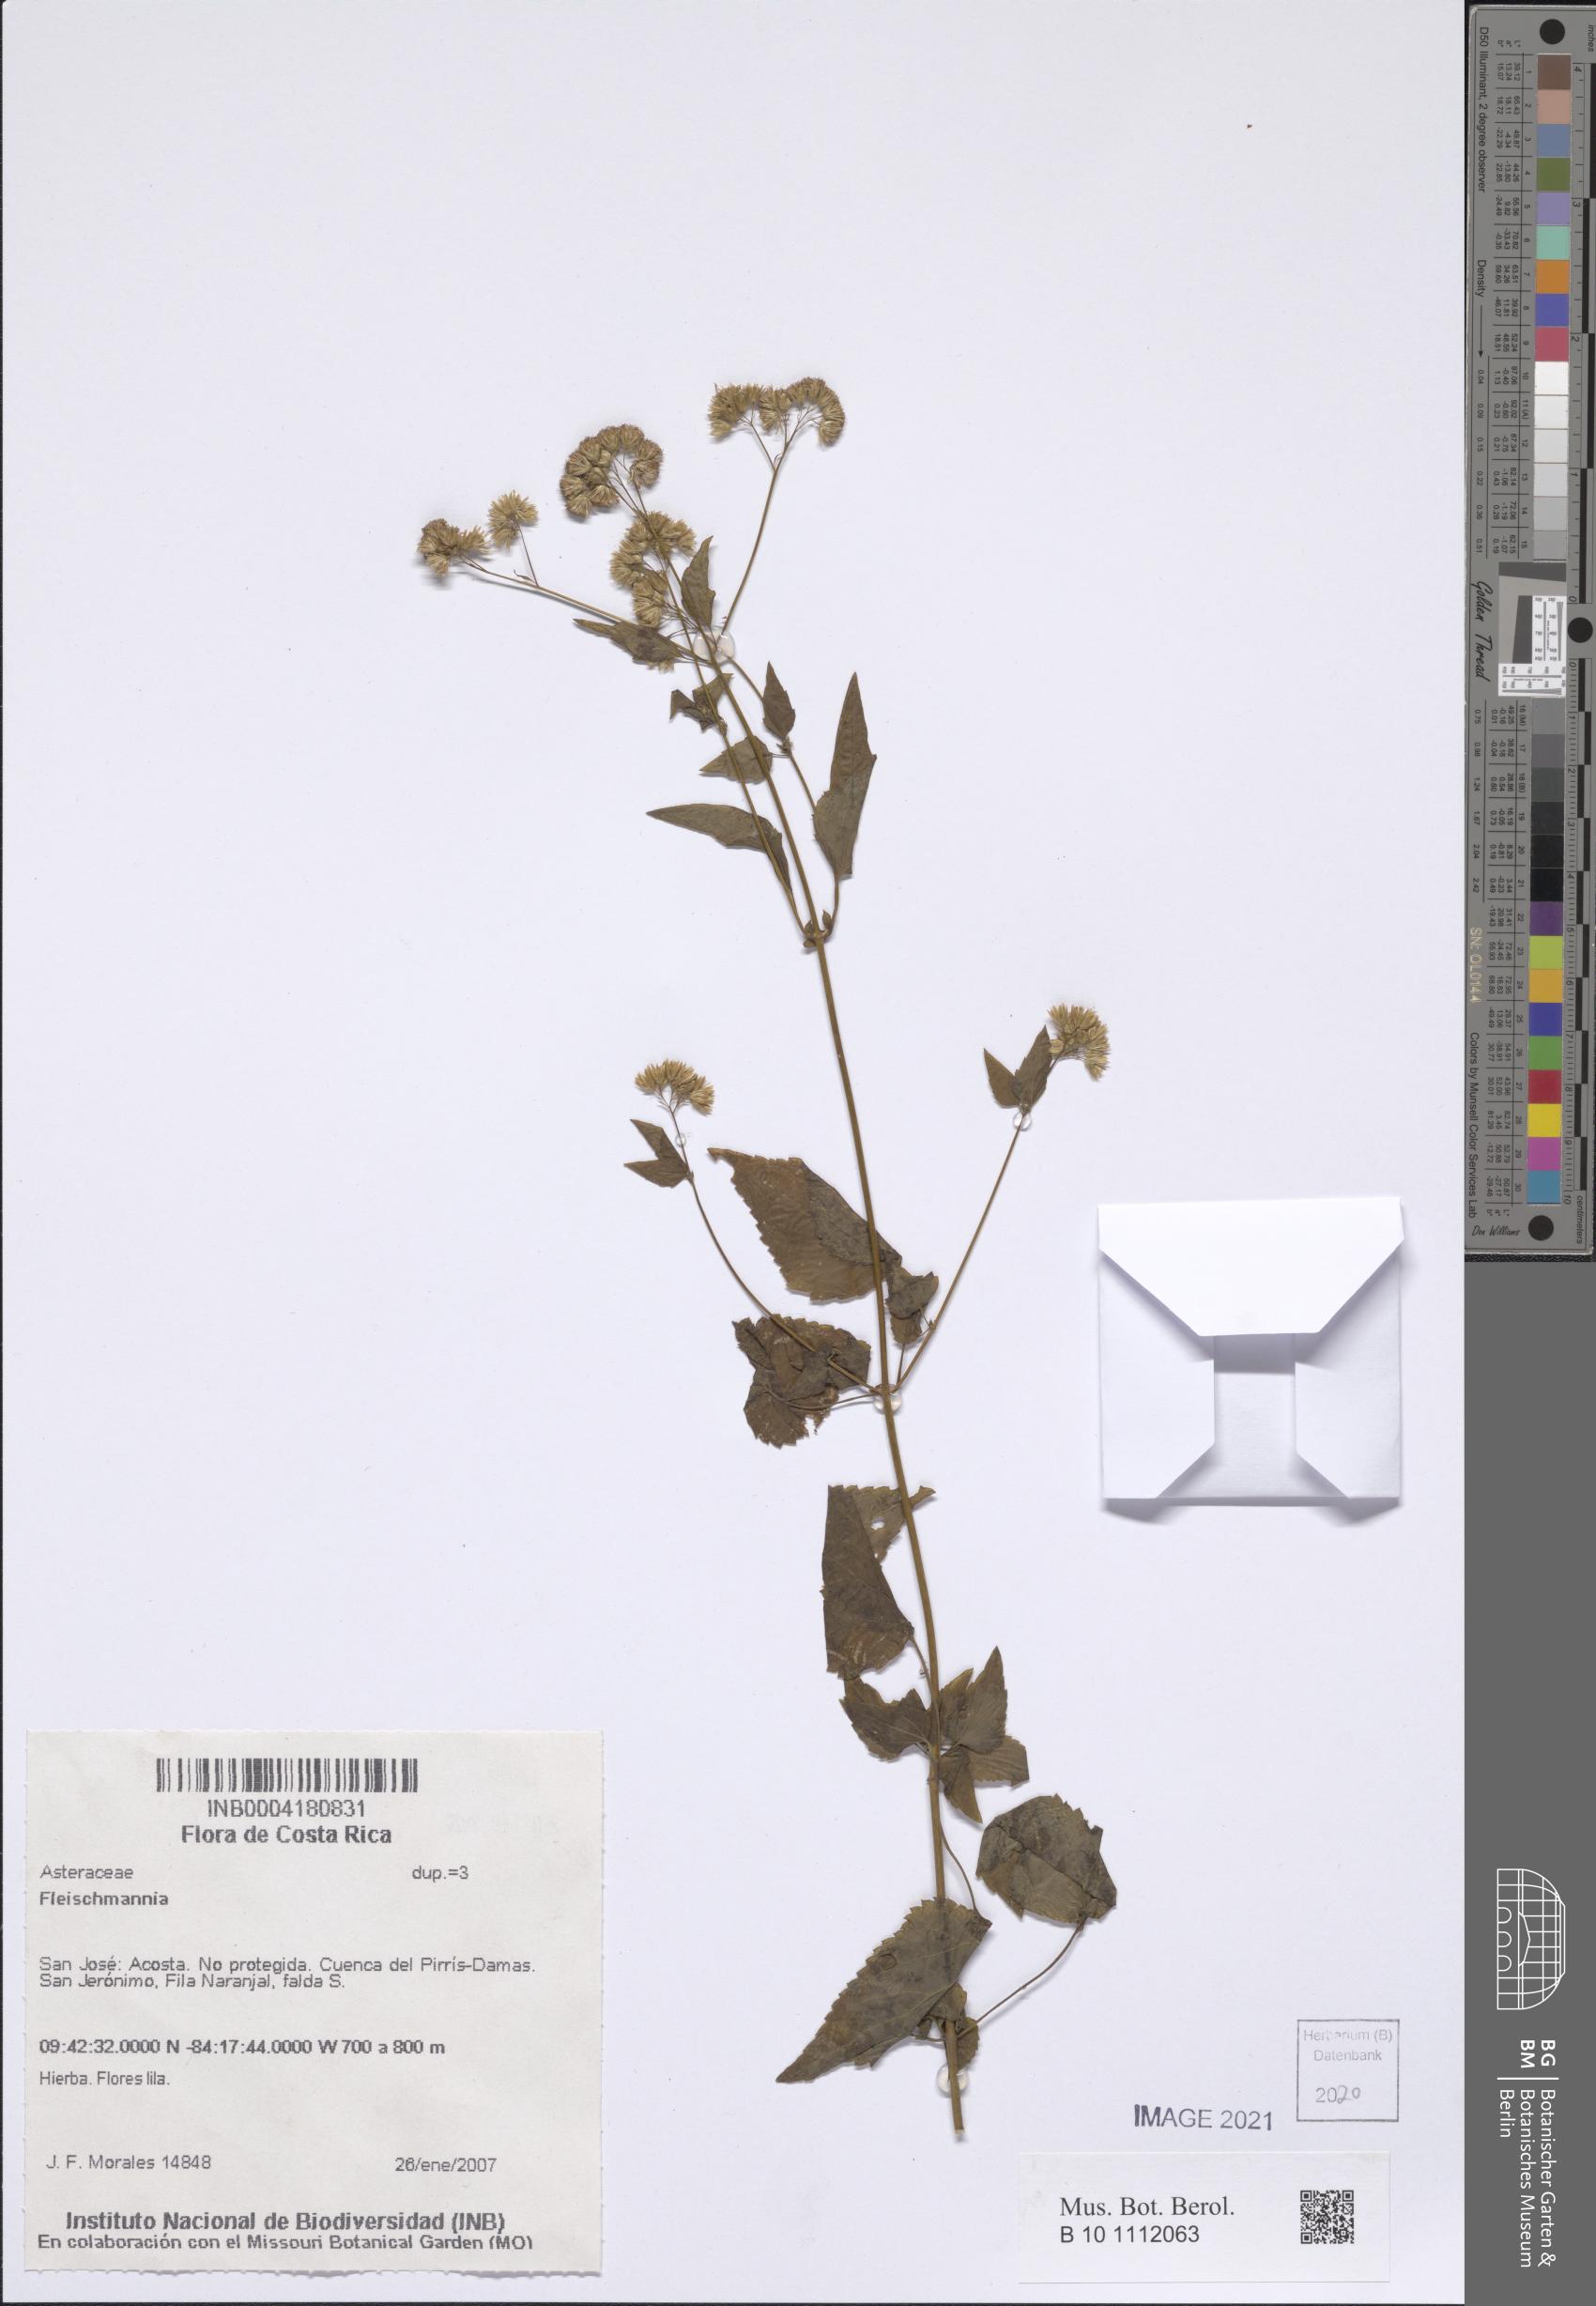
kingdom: Plantae
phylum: Tracheophyta
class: Magnoliopsida
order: Asterales
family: Asteraceae
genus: Fleischmannia
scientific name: Fleischmannia
